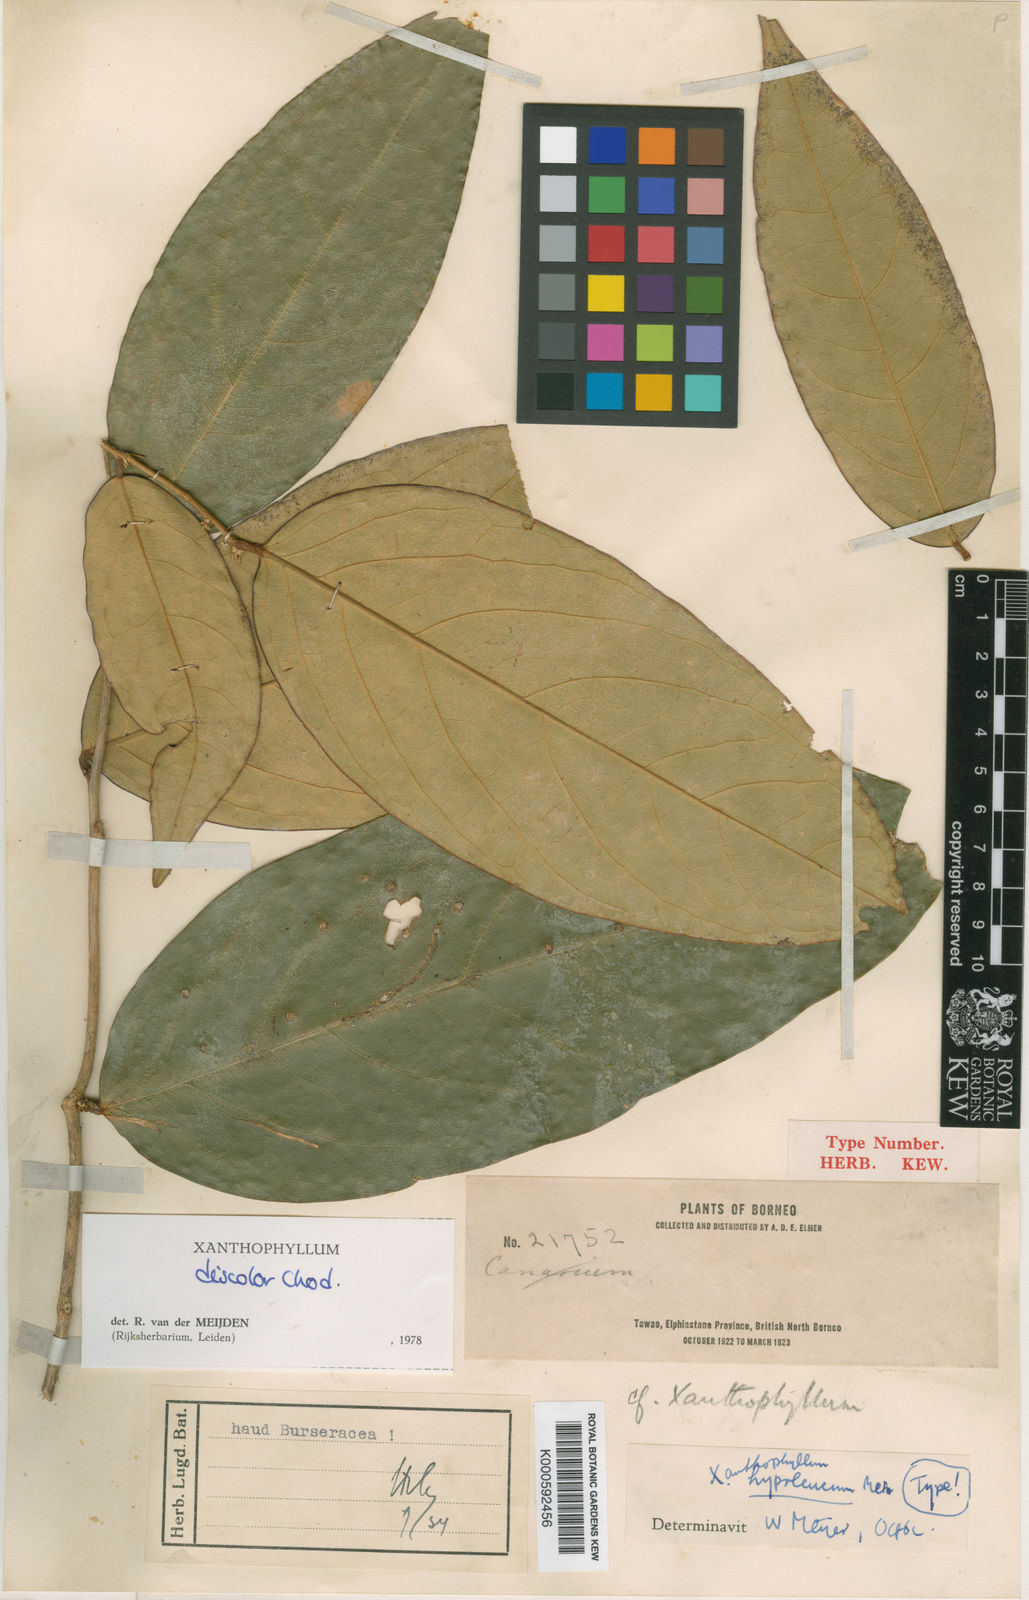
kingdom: Plantae
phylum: Tracheophyta
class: Magnoliopsida
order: Fabales
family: Polygalaceae
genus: Xanthophyllum
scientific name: Xanthophyllum discolor
